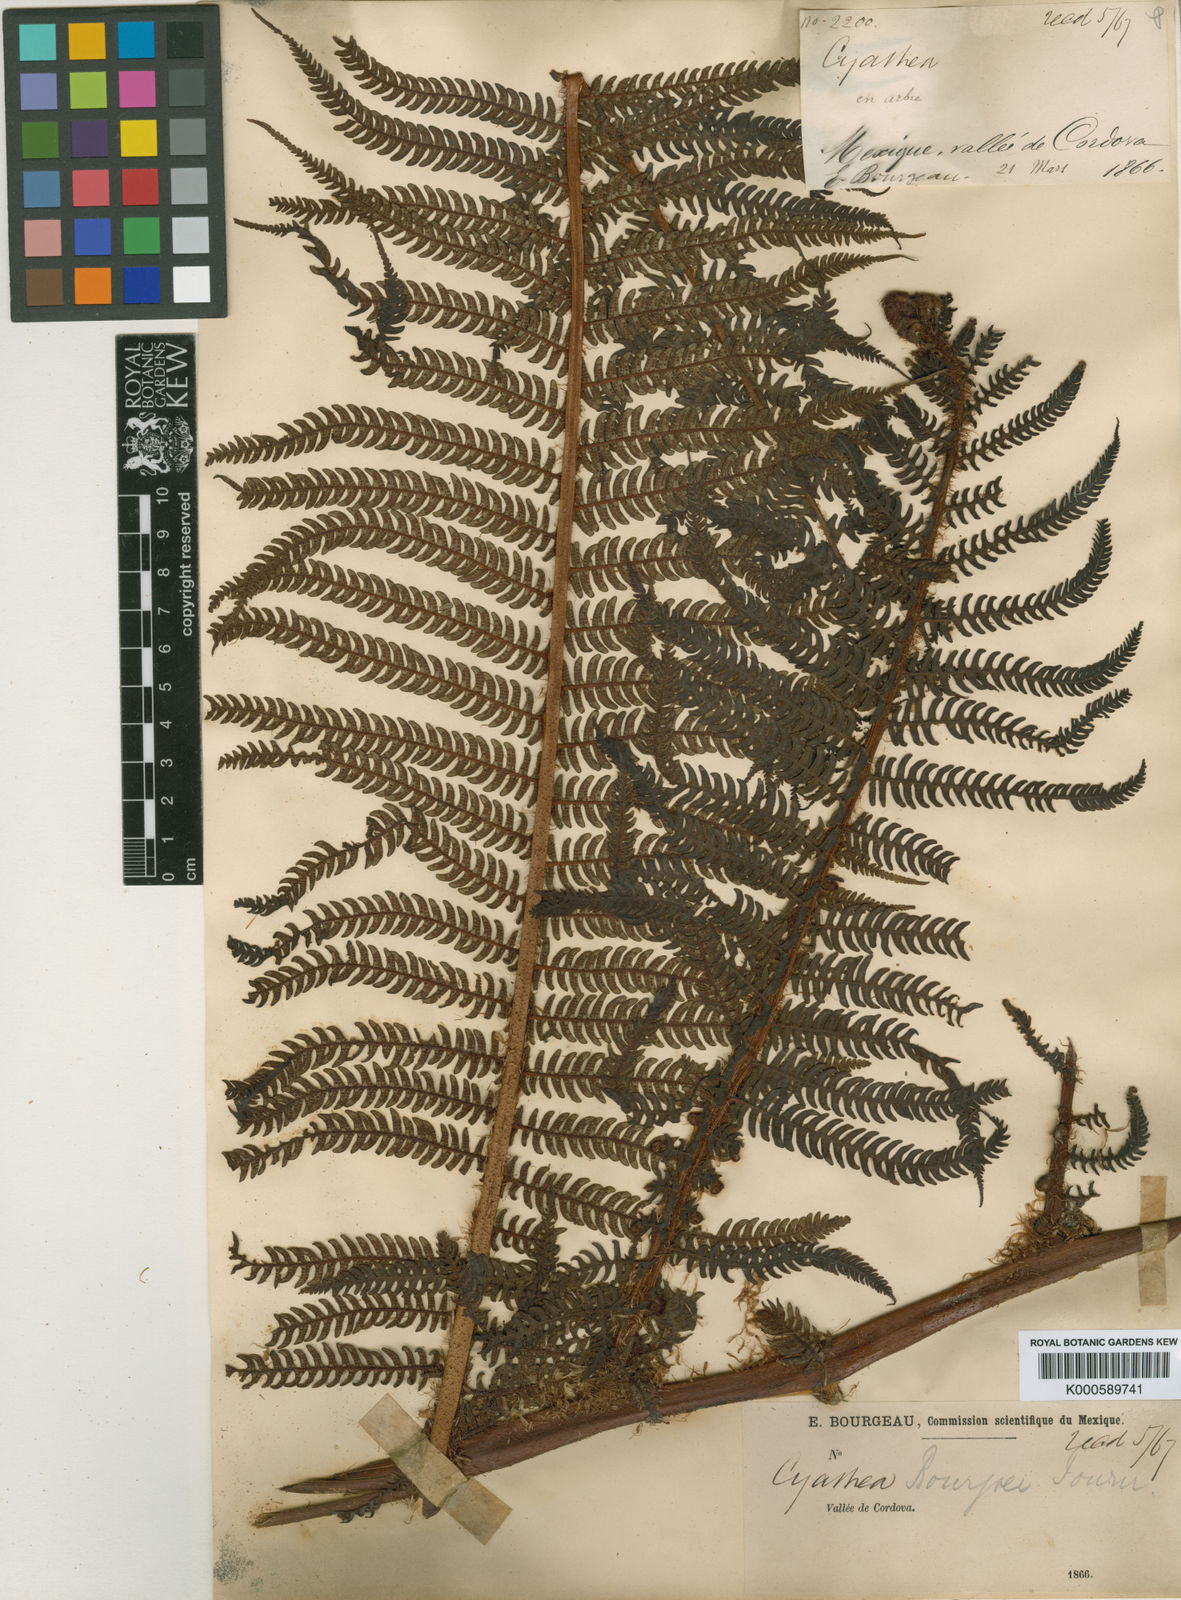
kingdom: Plantae
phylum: Tracheophyta
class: Polypodiopsida
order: Cyatheales
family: Cyatheaceae
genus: Cyathea
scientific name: Cyathea horrida
